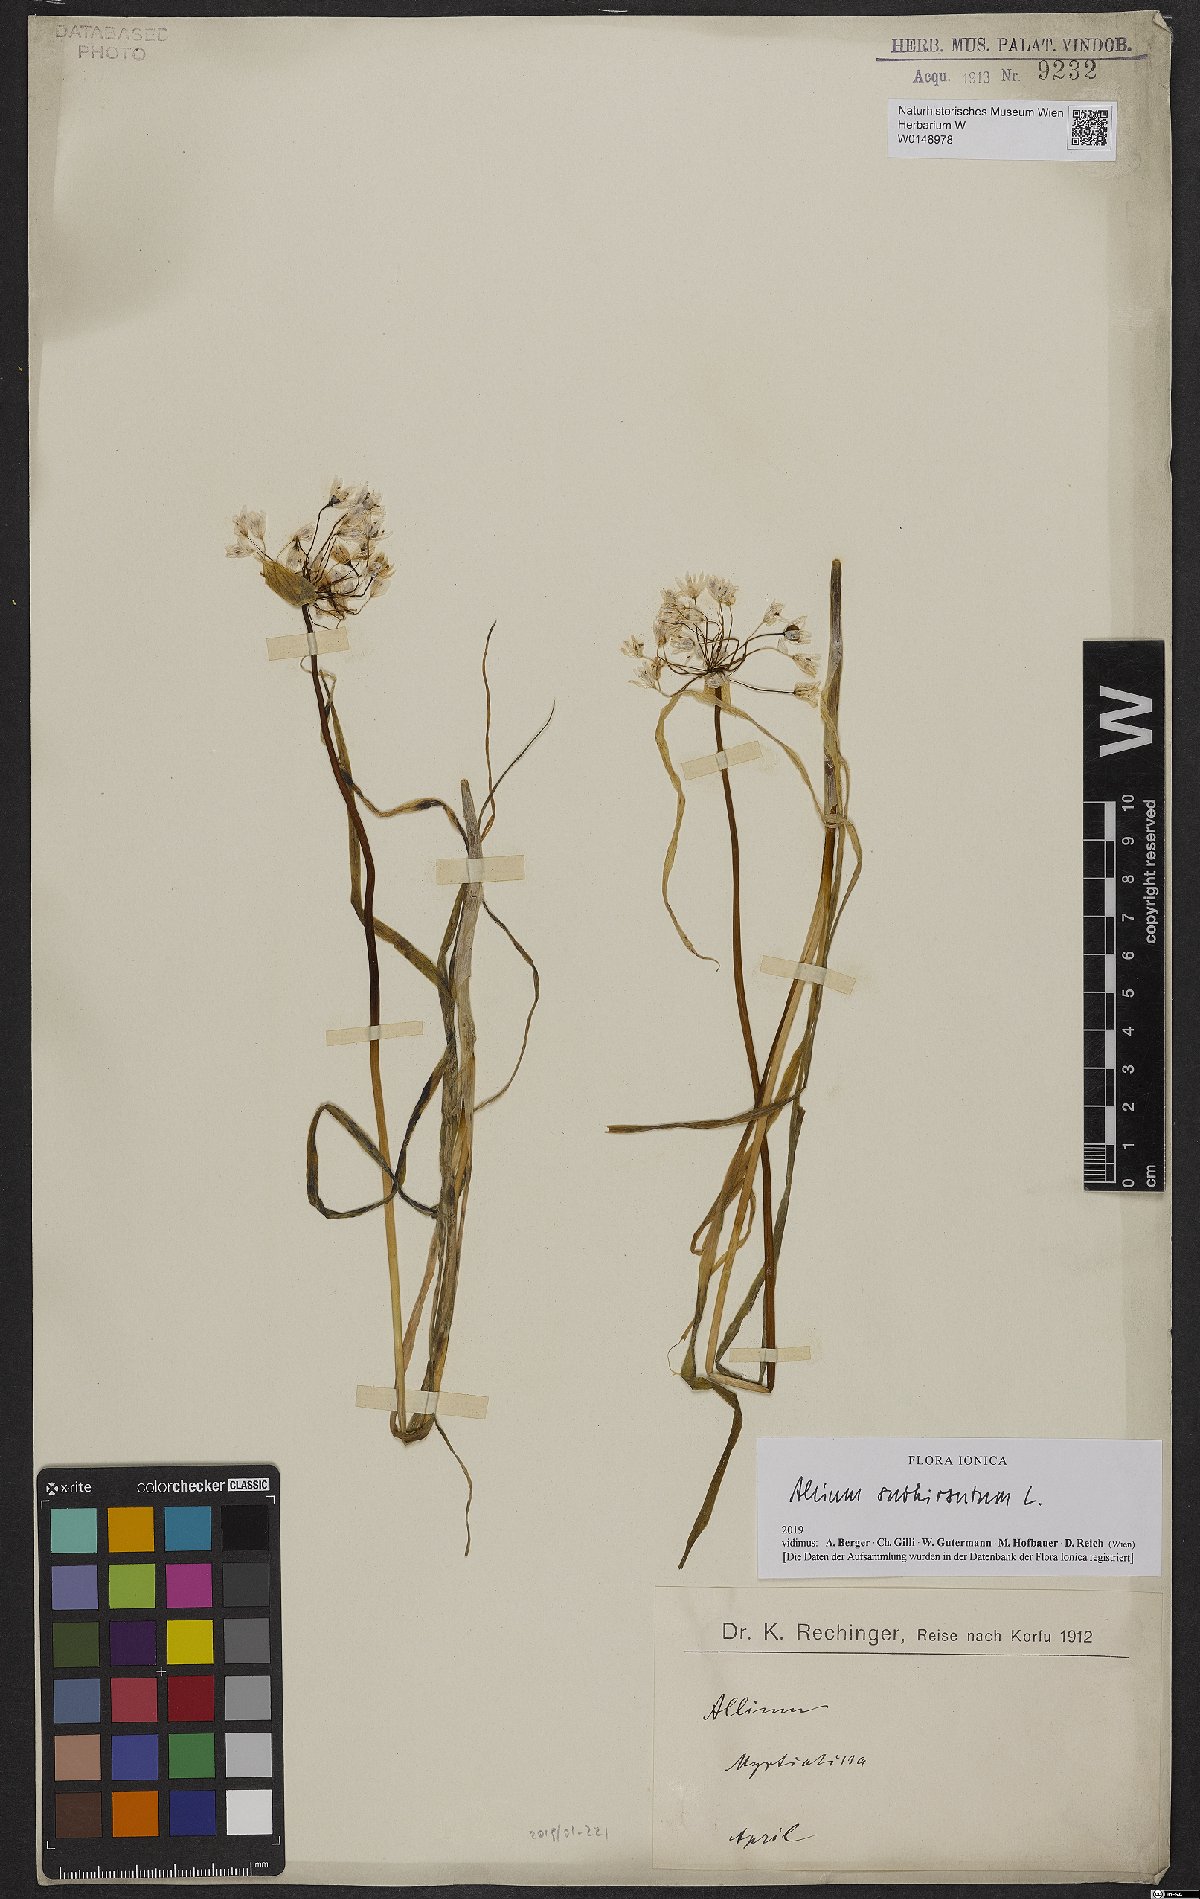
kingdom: Plantae
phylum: Tracheophyta
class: Liliopsida
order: Asparagales
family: Amaryllidaceae
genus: Allium
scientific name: Allium subhirsutum
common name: Hairy garlic
